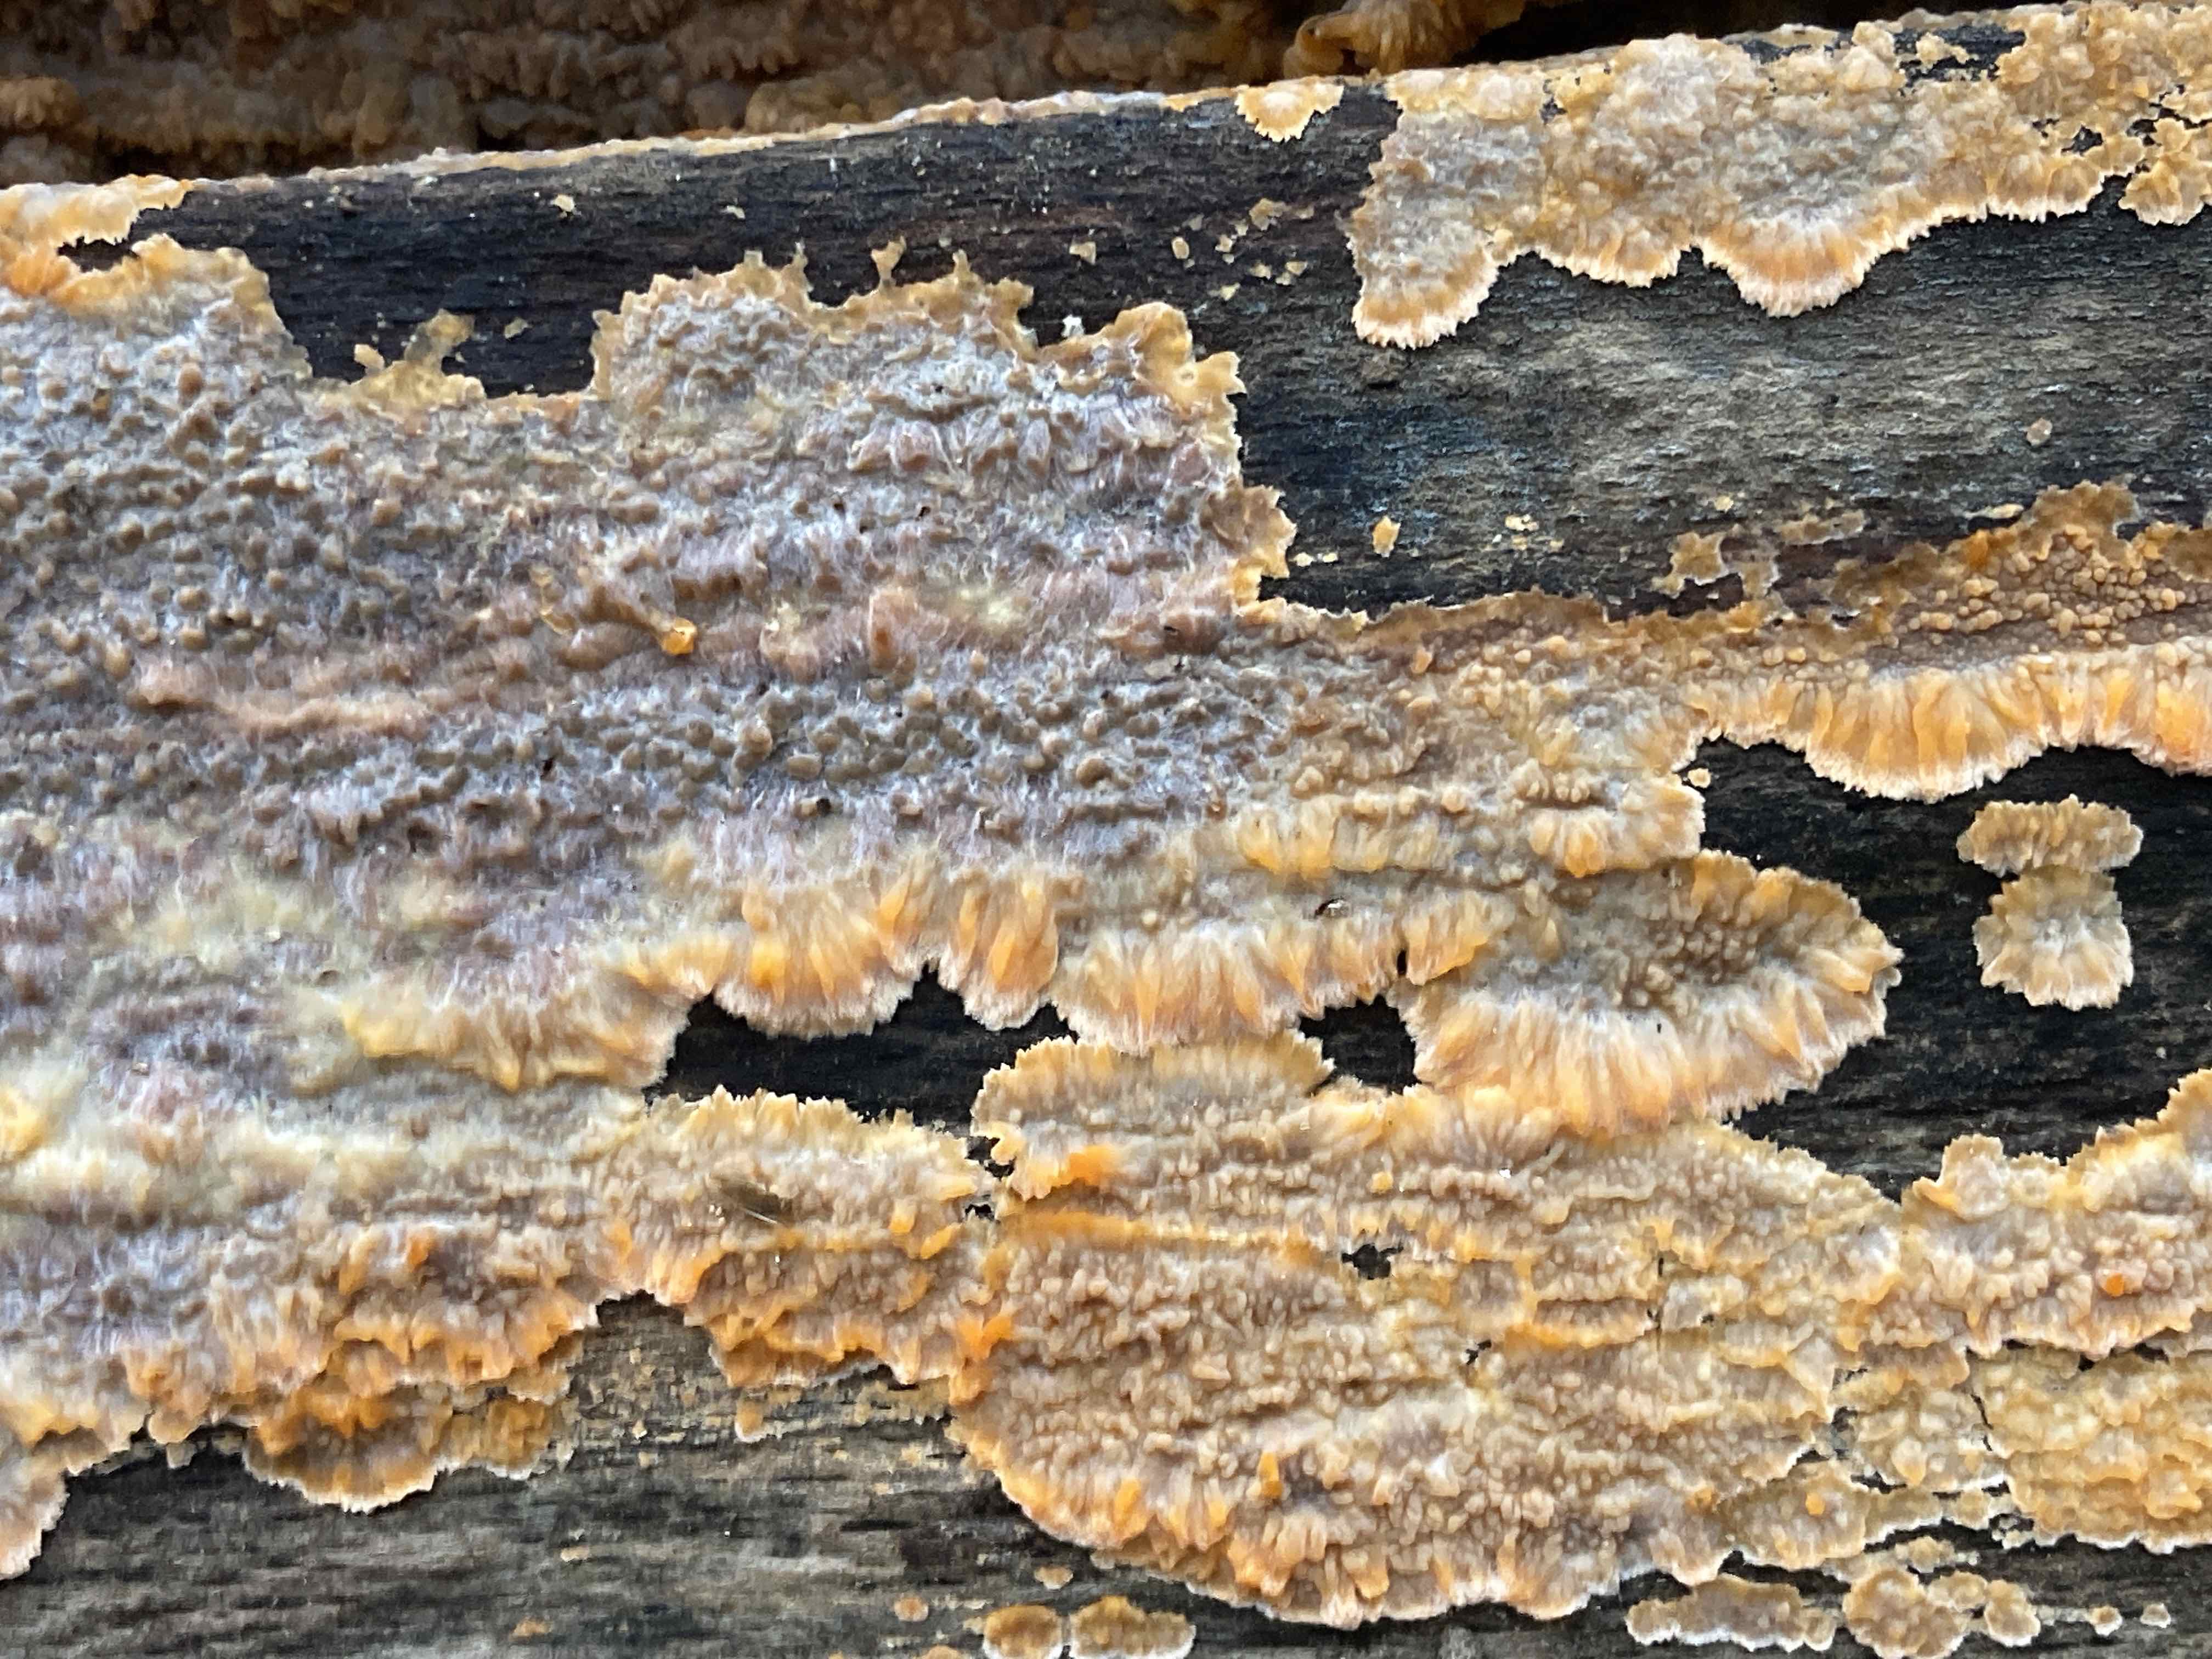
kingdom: Fungi
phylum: Basidiomycota
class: Agaricomycetes
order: Polyporales
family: Meruliaceae
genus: Phlebia
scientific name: Phlebia radiata
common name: stråle-åresvamp
